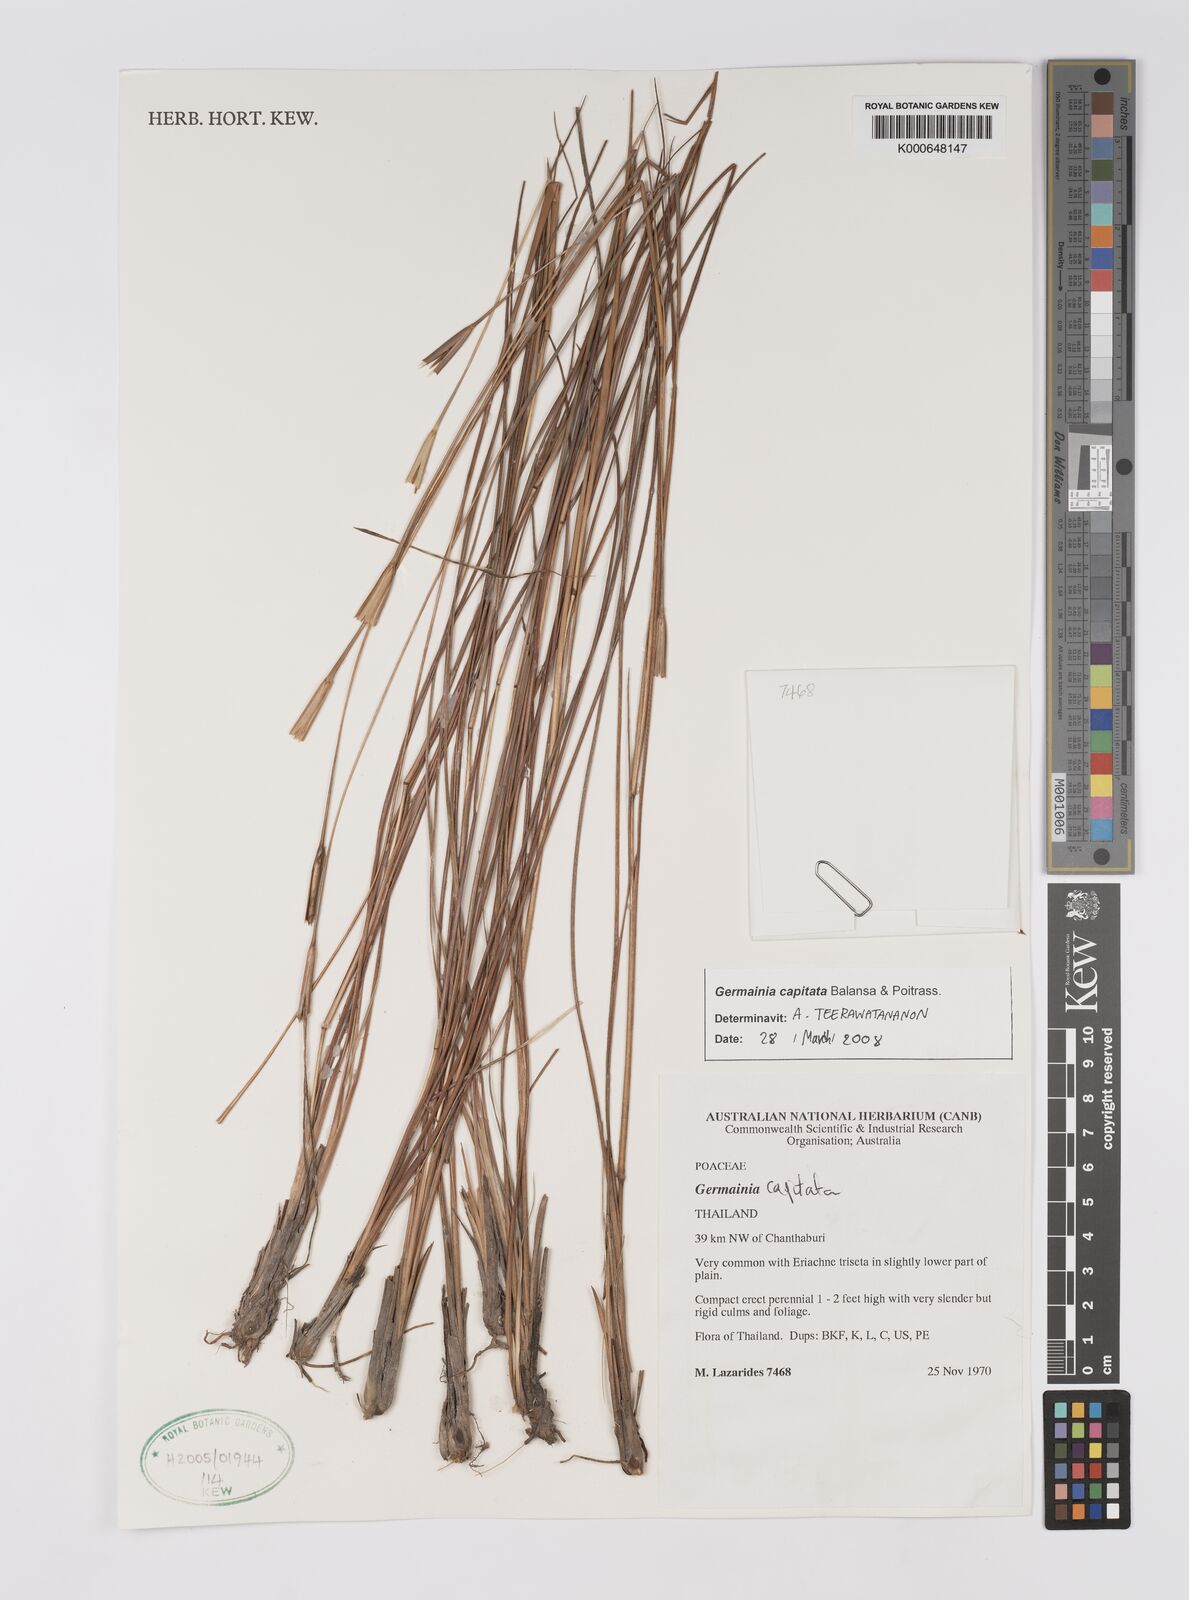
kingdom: Plantae
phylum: Tracheophyta
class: Liliopsida
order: Poales
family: Poaceae
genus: Germainia
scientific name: Germainia capitata
